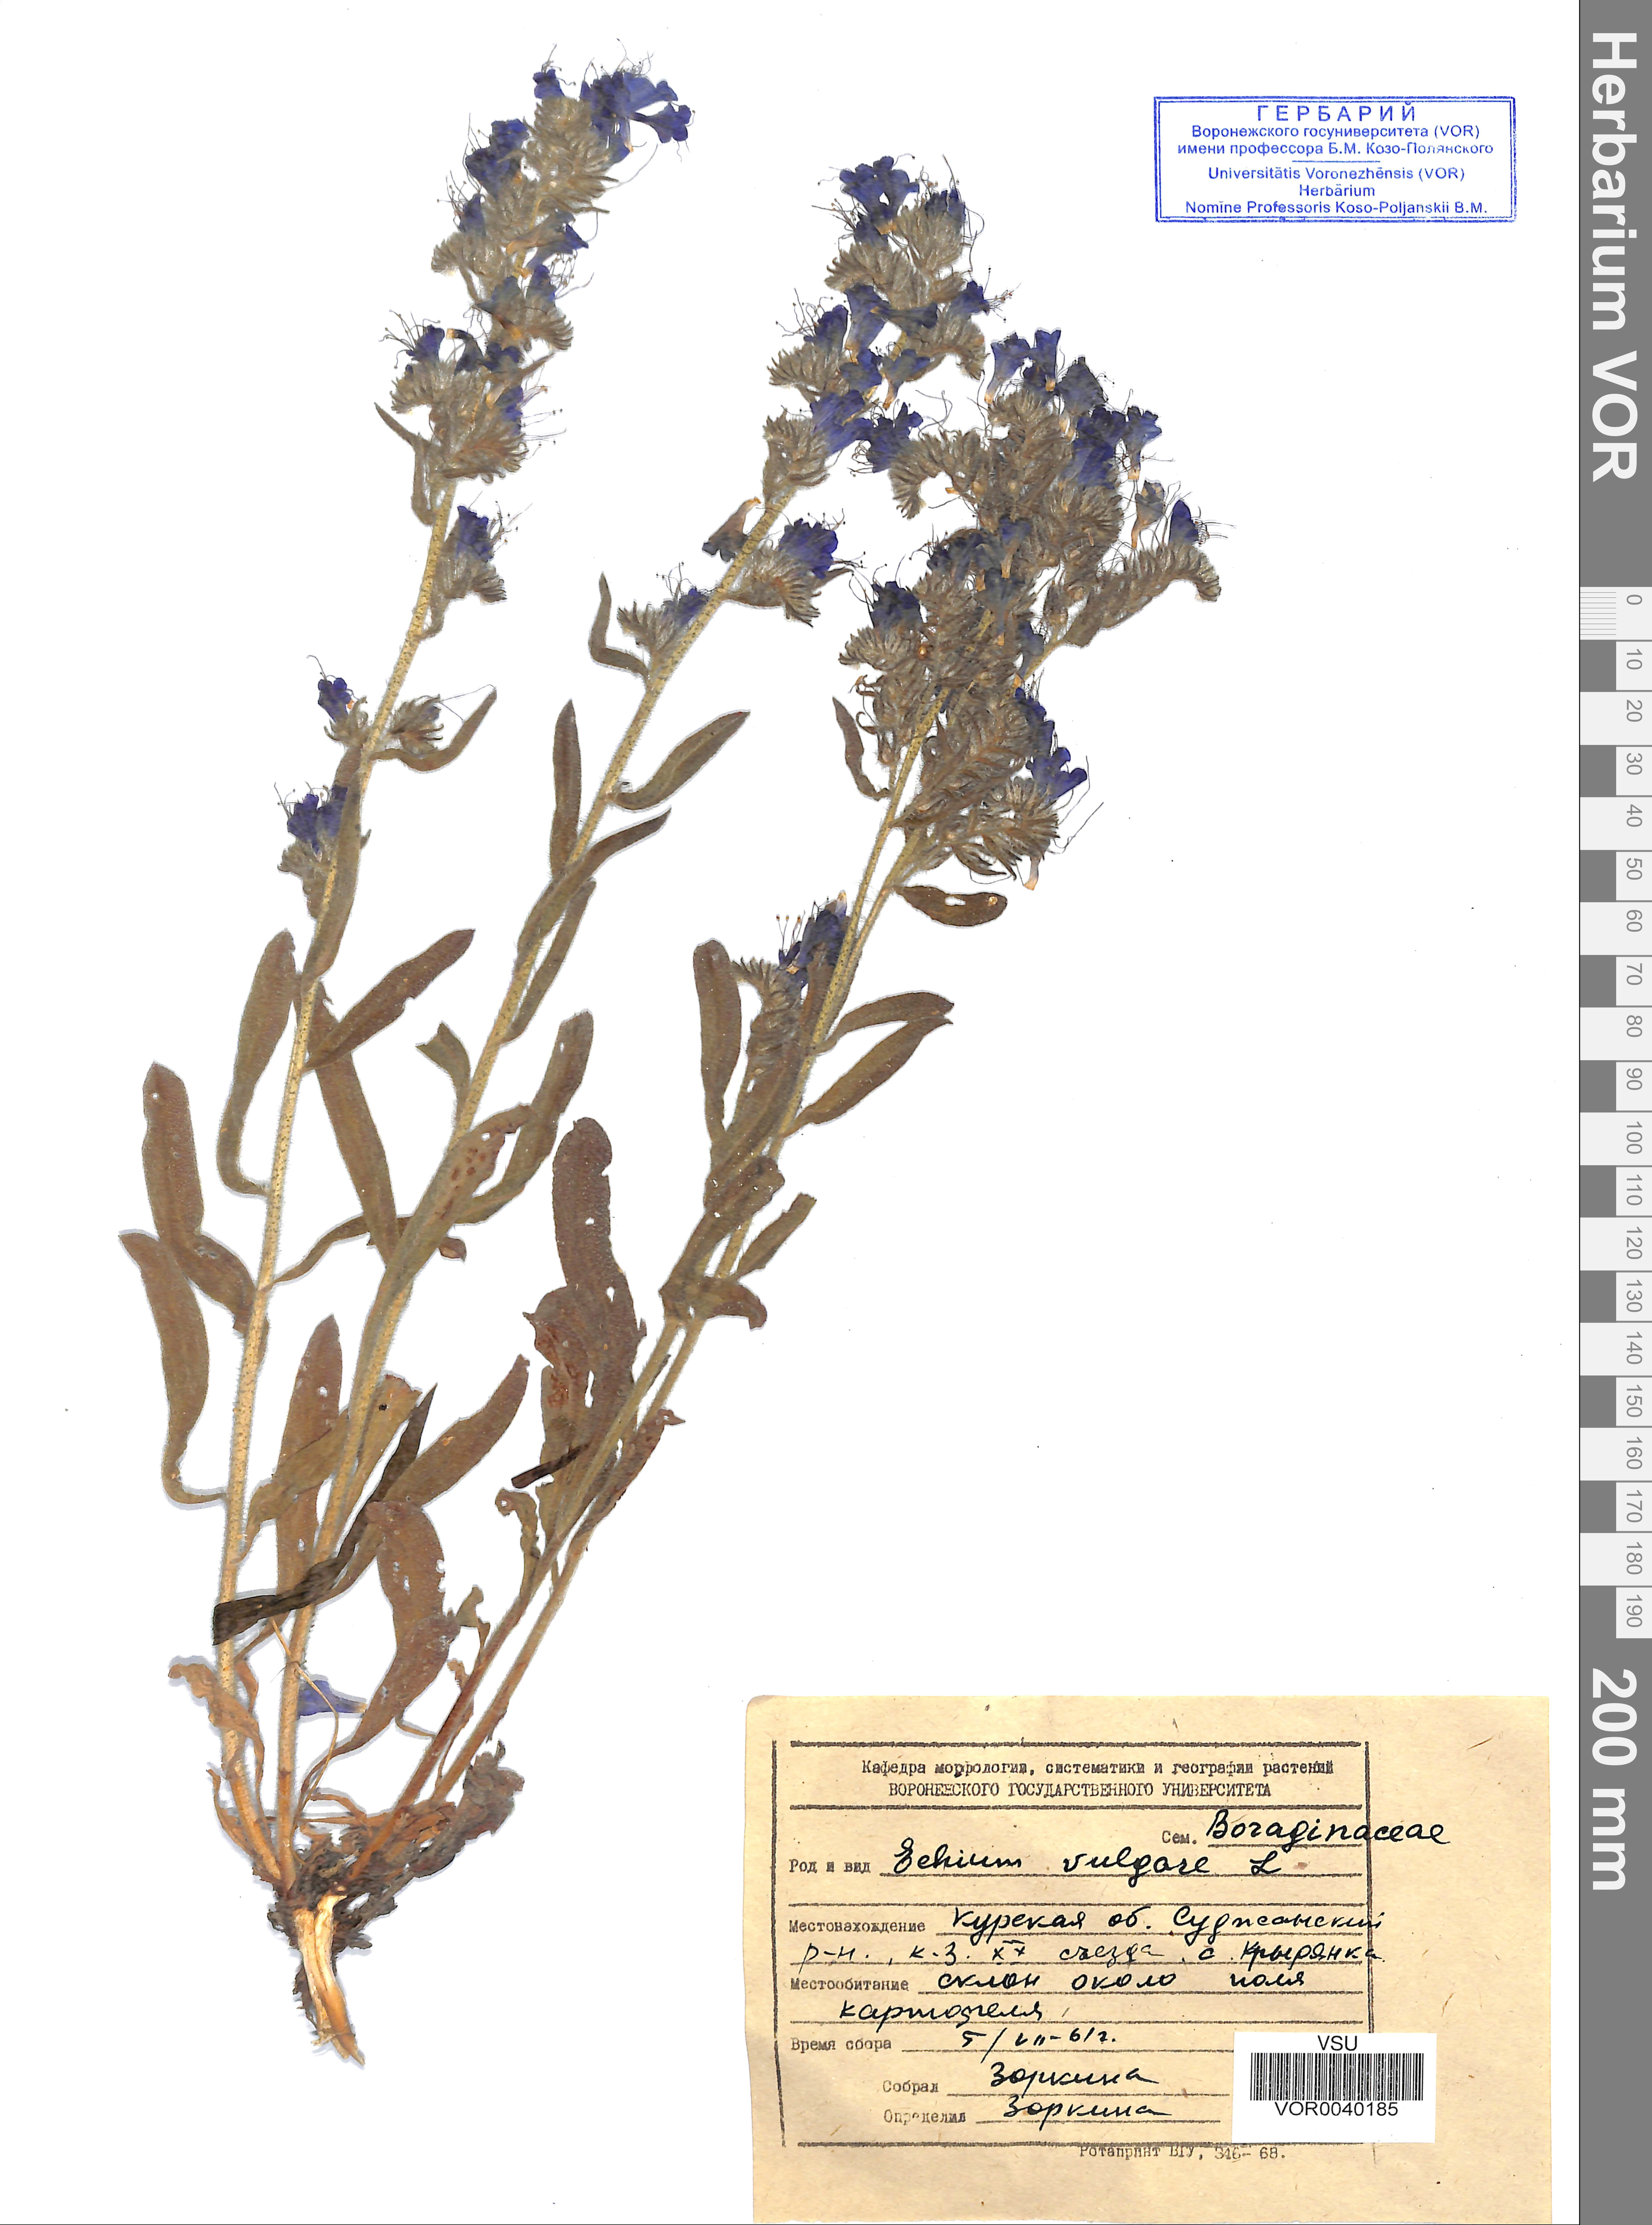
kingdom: Plantae
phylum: Tracheophyta
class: Magnoliopsida
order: Boraginales
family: Boraginaceae
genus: Echium
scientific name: Echium vulgare
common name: Common viper's bugloss
